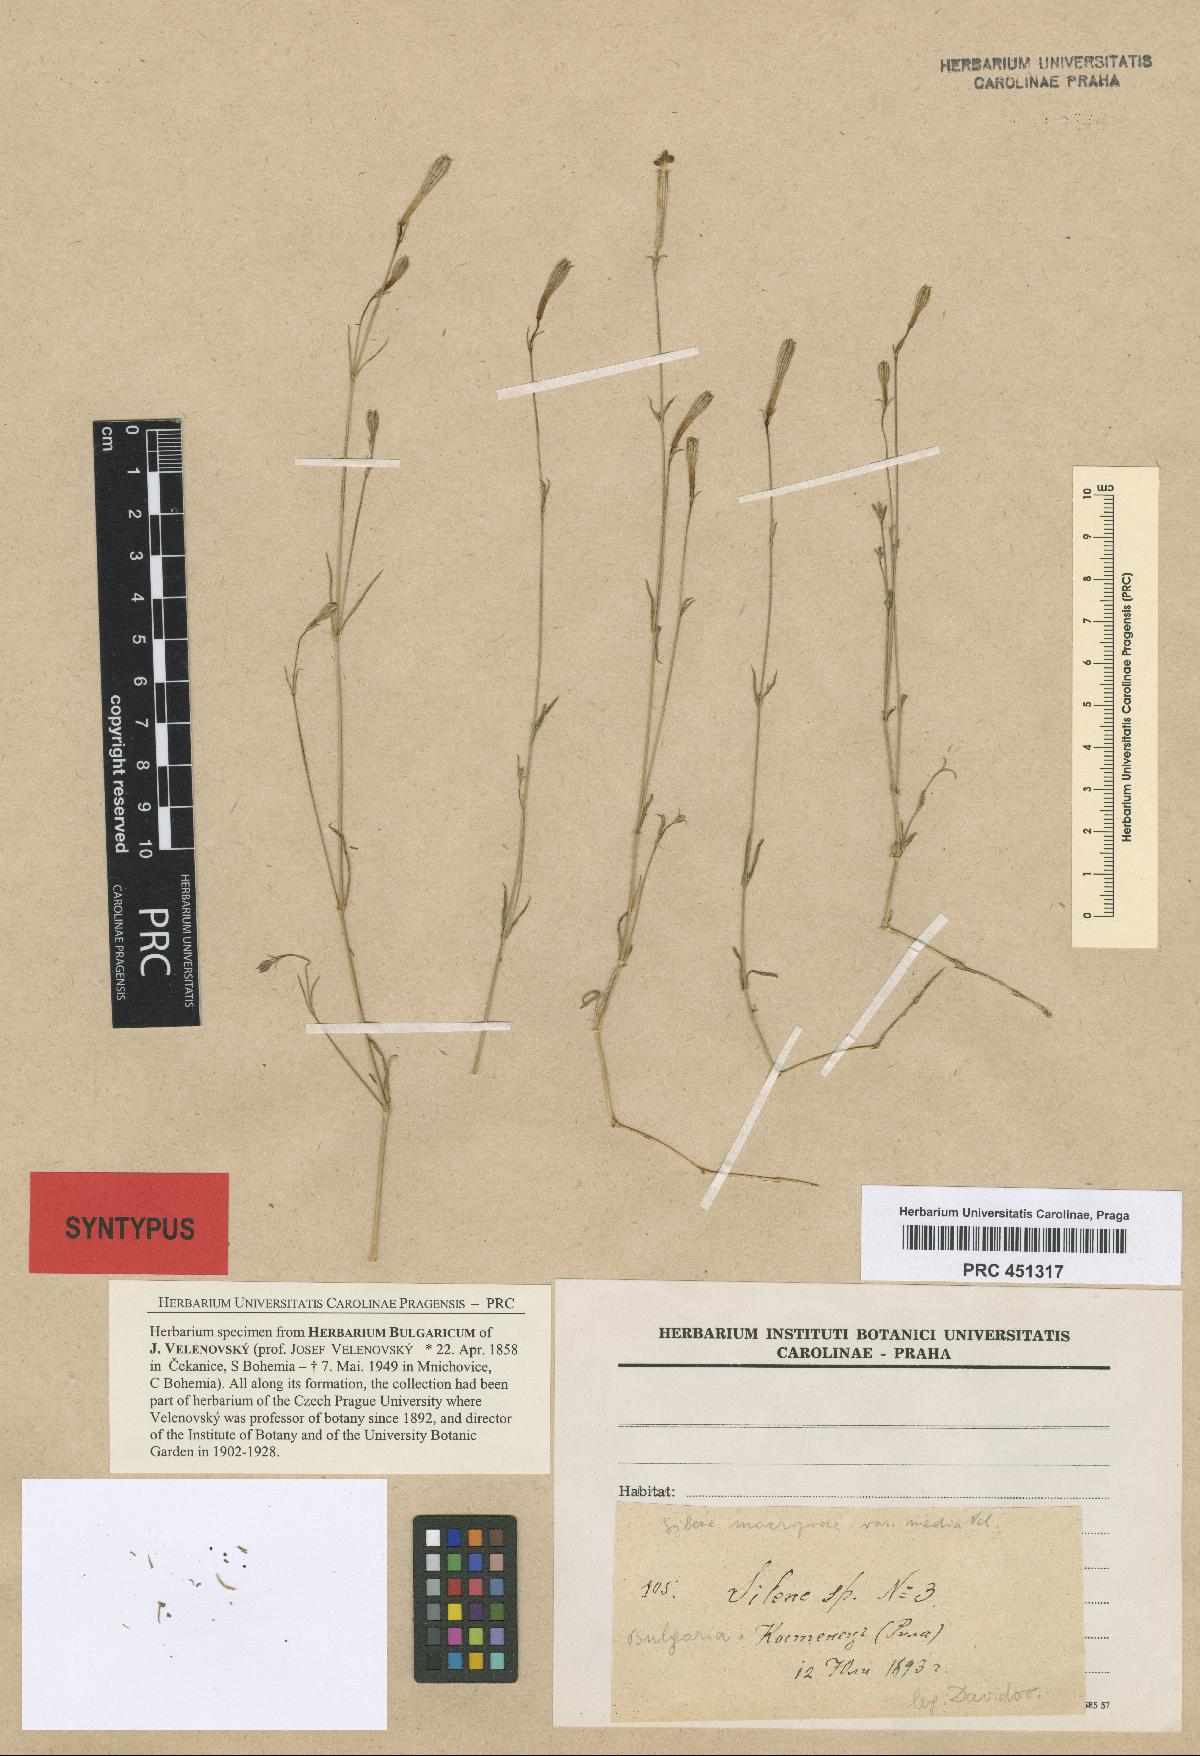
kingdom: Plantae
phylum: Tracheophyta
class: Magnoliopsida
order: Caryophyllales
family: Caryophyllaceae
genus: Silene
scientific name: Silene waldsteinii
